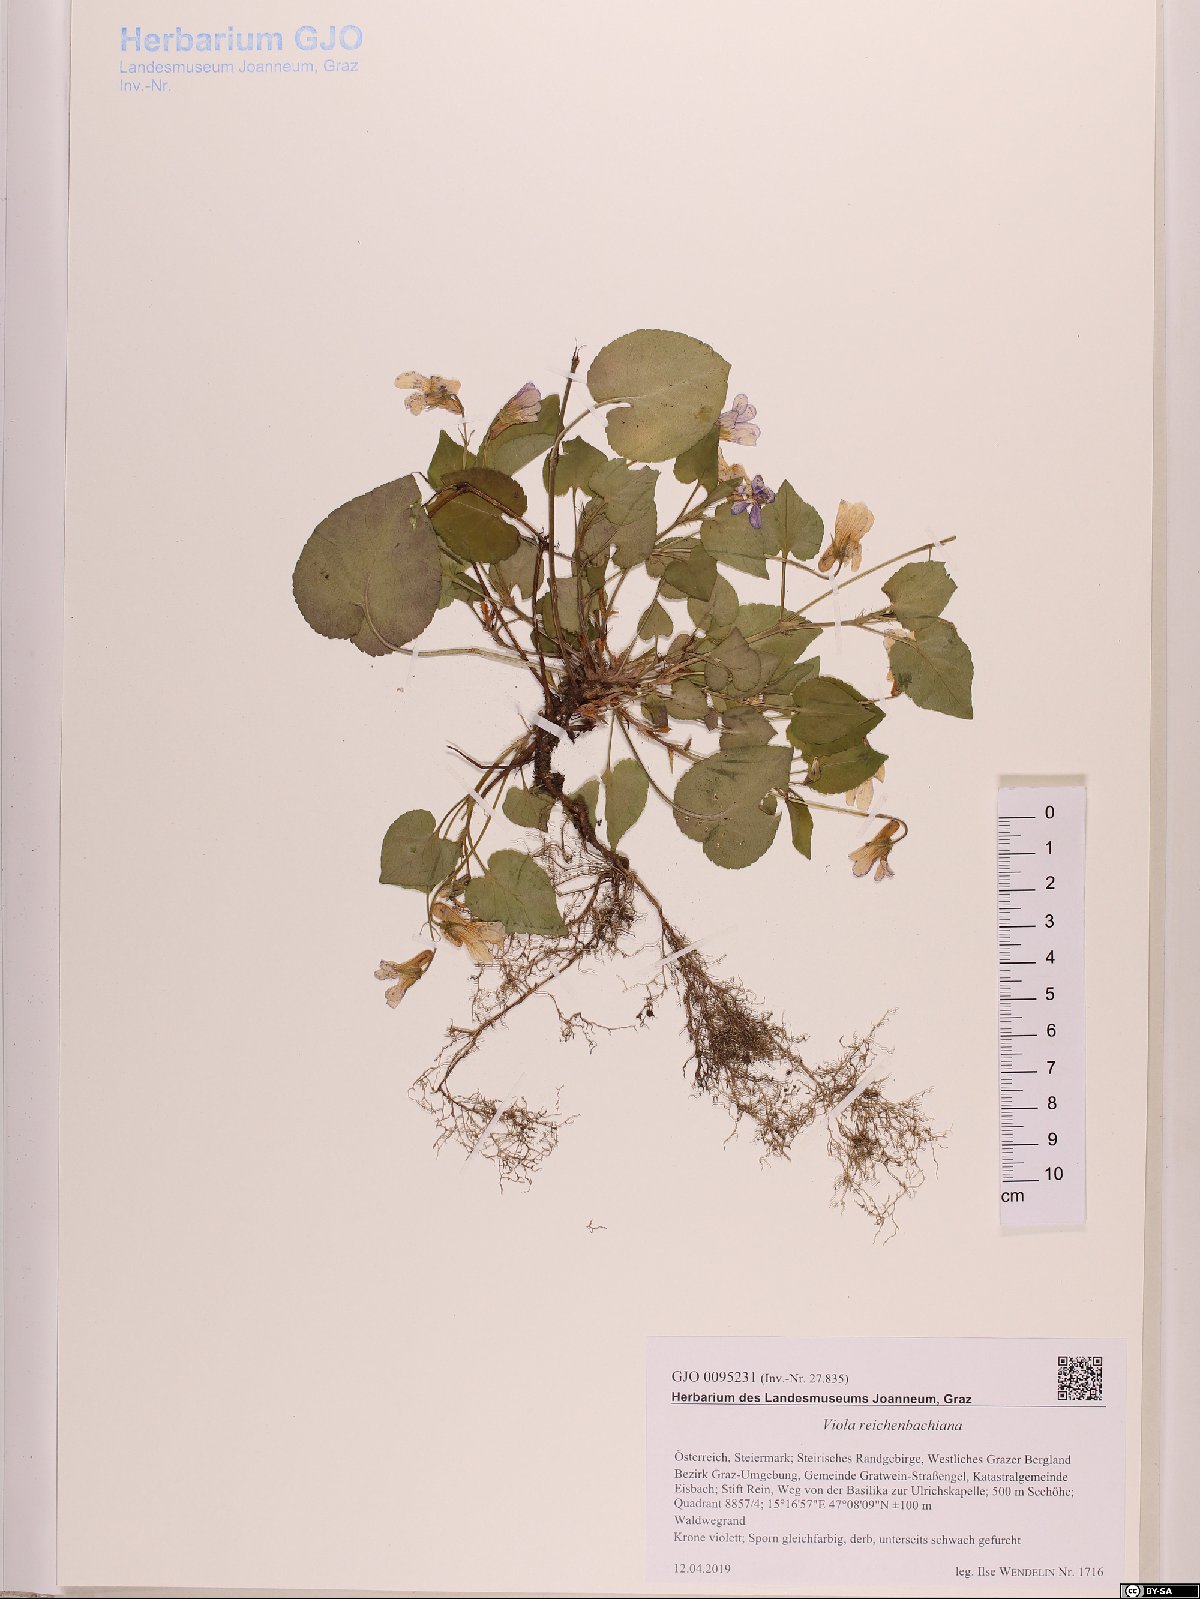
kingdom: Plantae
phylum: Tracheophyta
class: Magnoliopsida
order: Malpighiales
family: Violaceae
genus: Viola
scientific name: Viola reichenbachiana
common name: Early dog-violet
